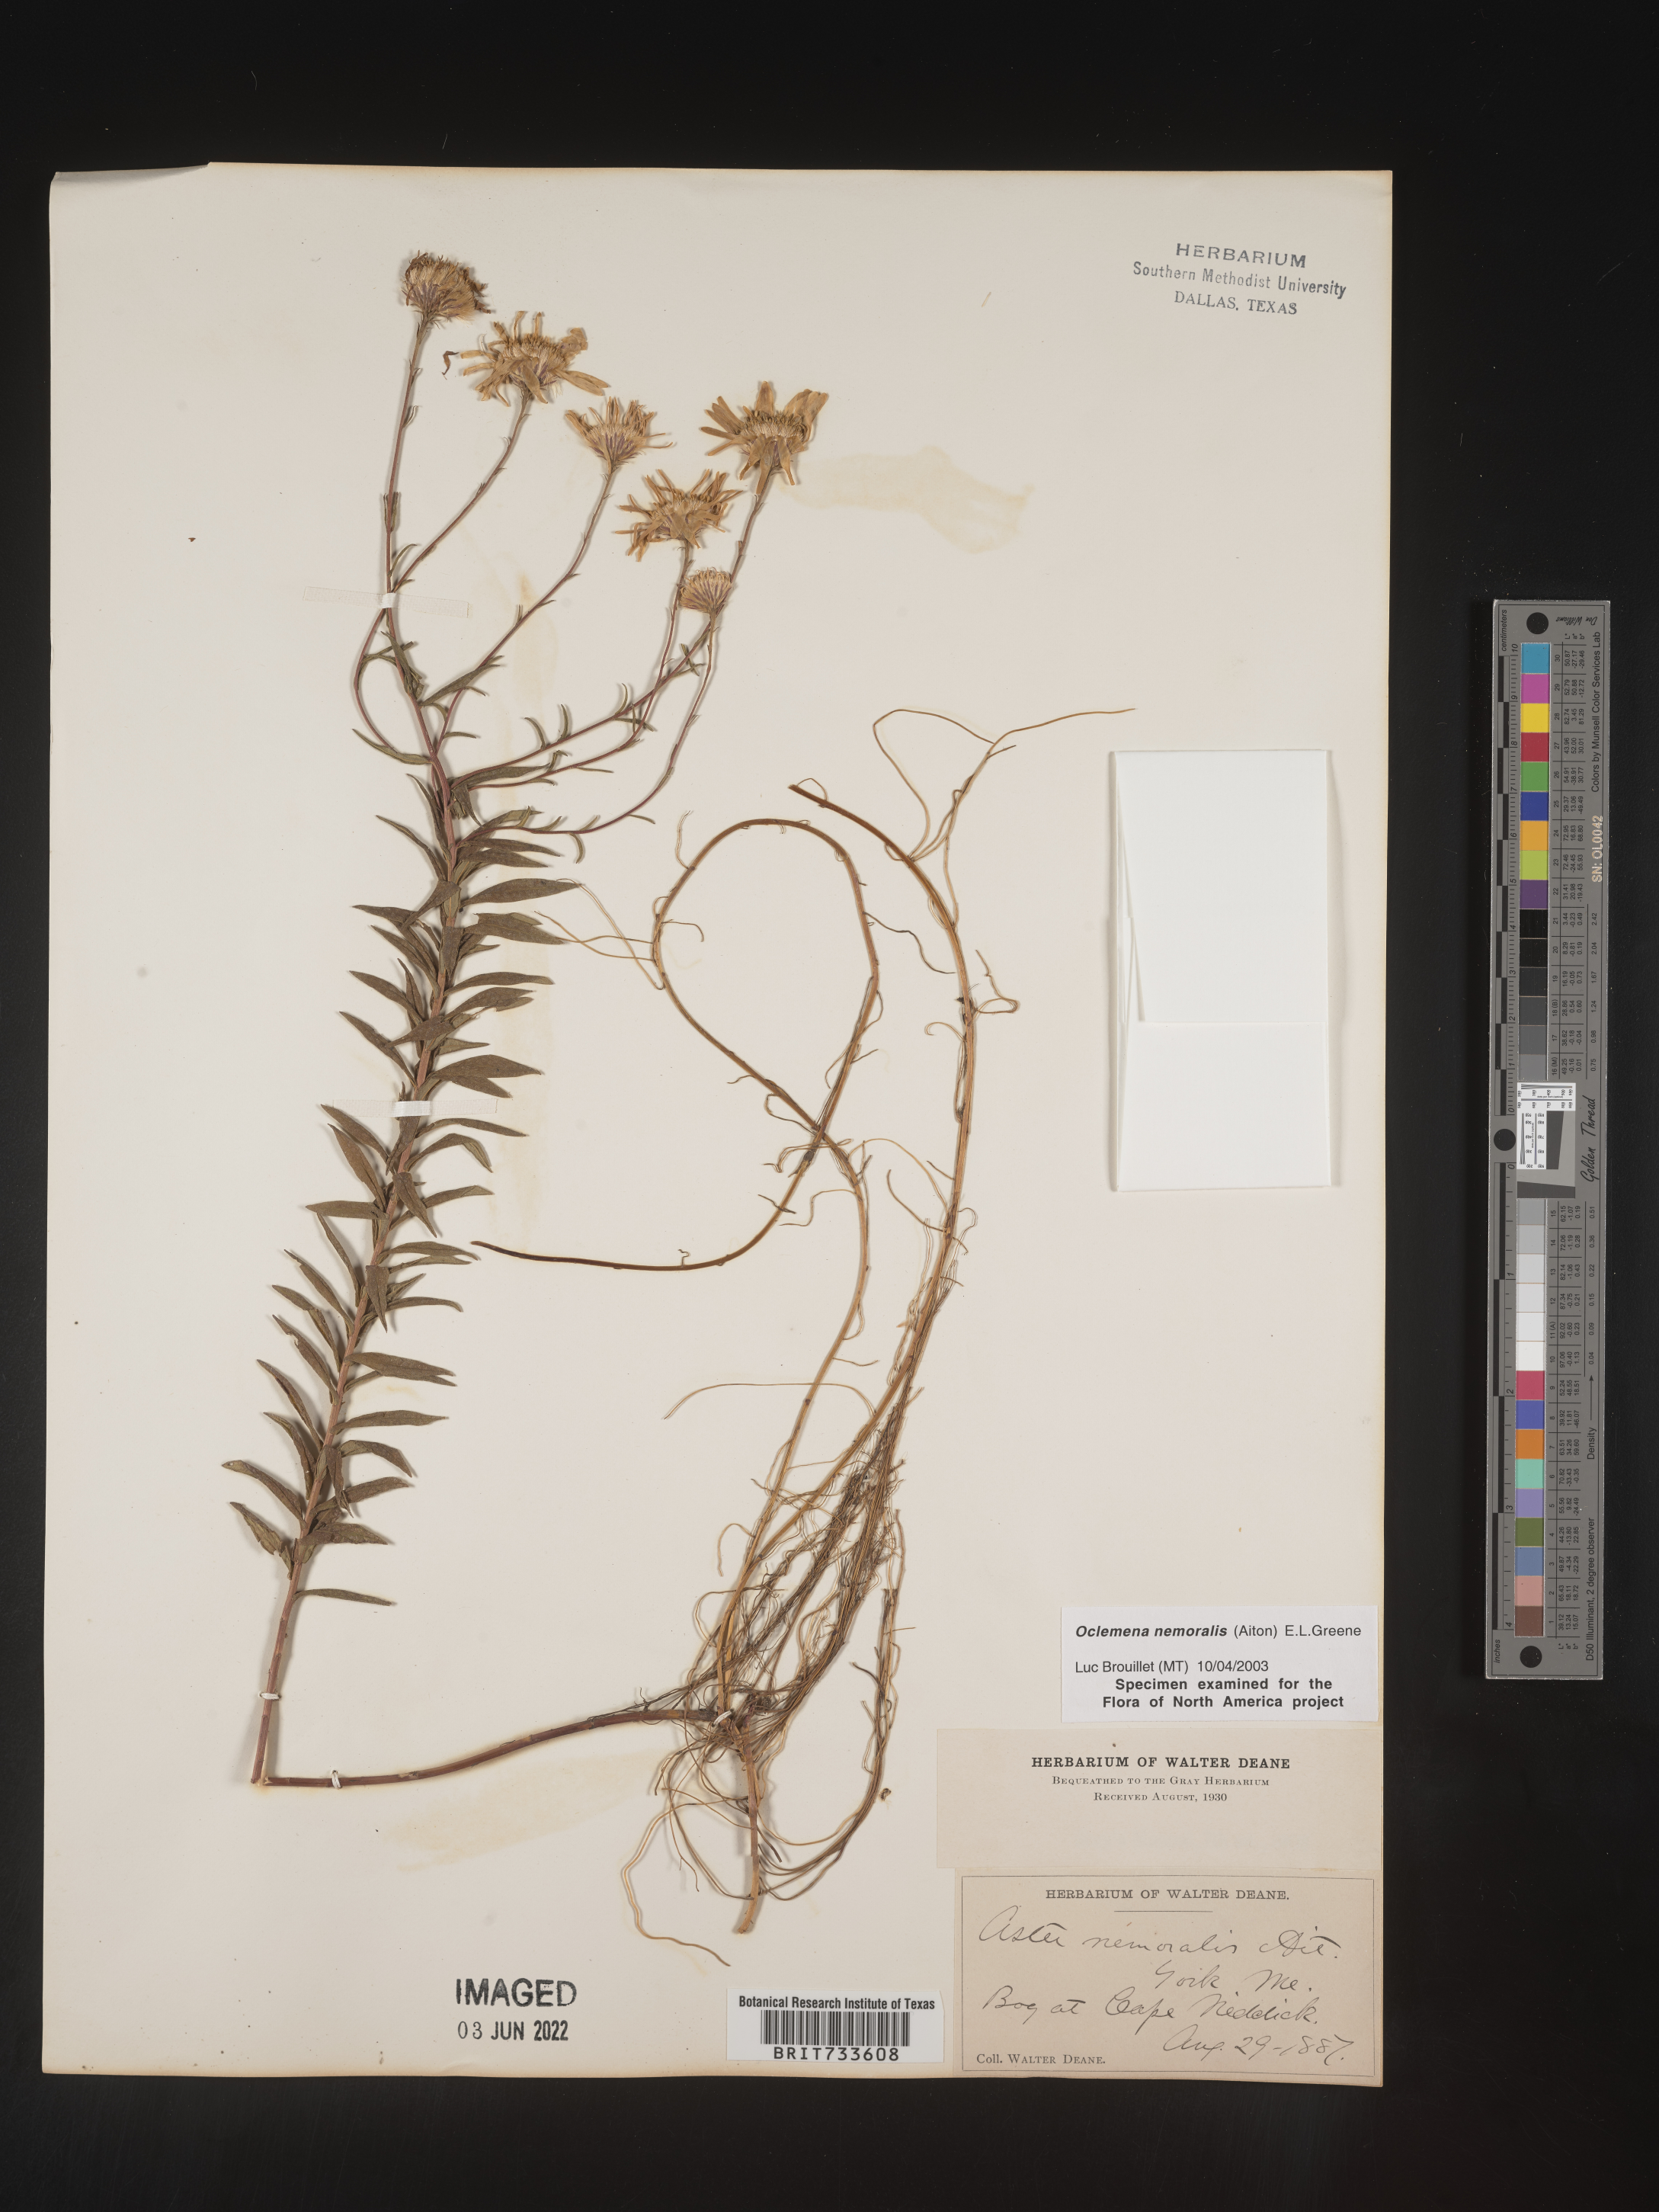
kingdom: Plantae
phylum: Tracheophyta
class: Magnoliopsida
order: Asterales
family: Asteraceae
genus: Oclemena
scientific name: Oclemena nemoralis
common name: Bog aster
